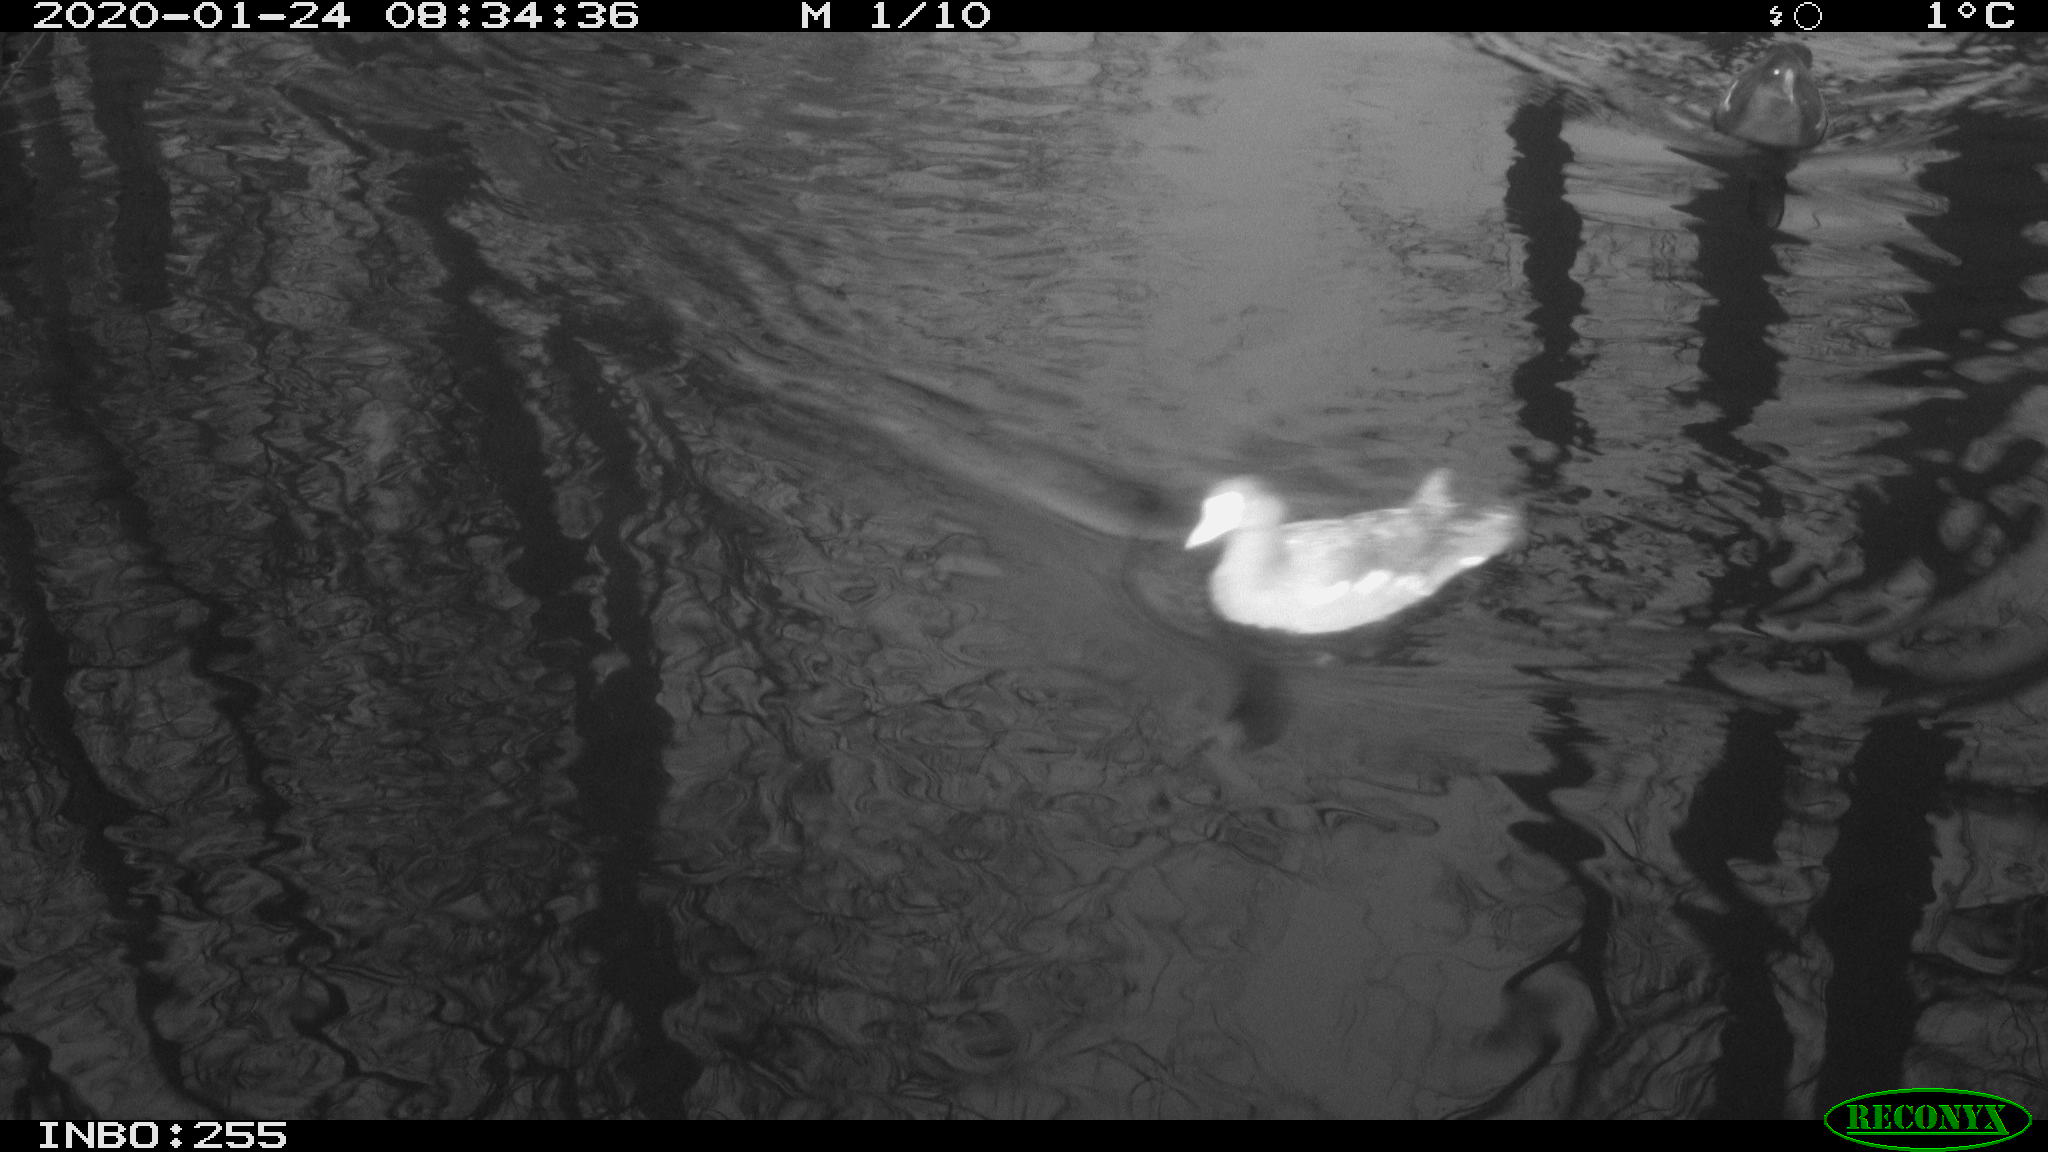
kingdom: Animalia
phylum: Chordata
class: Aves
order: Gruiformes
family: Rallidae
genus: Gallinula
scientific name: Gallinula chloropus
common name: Common moorhen
